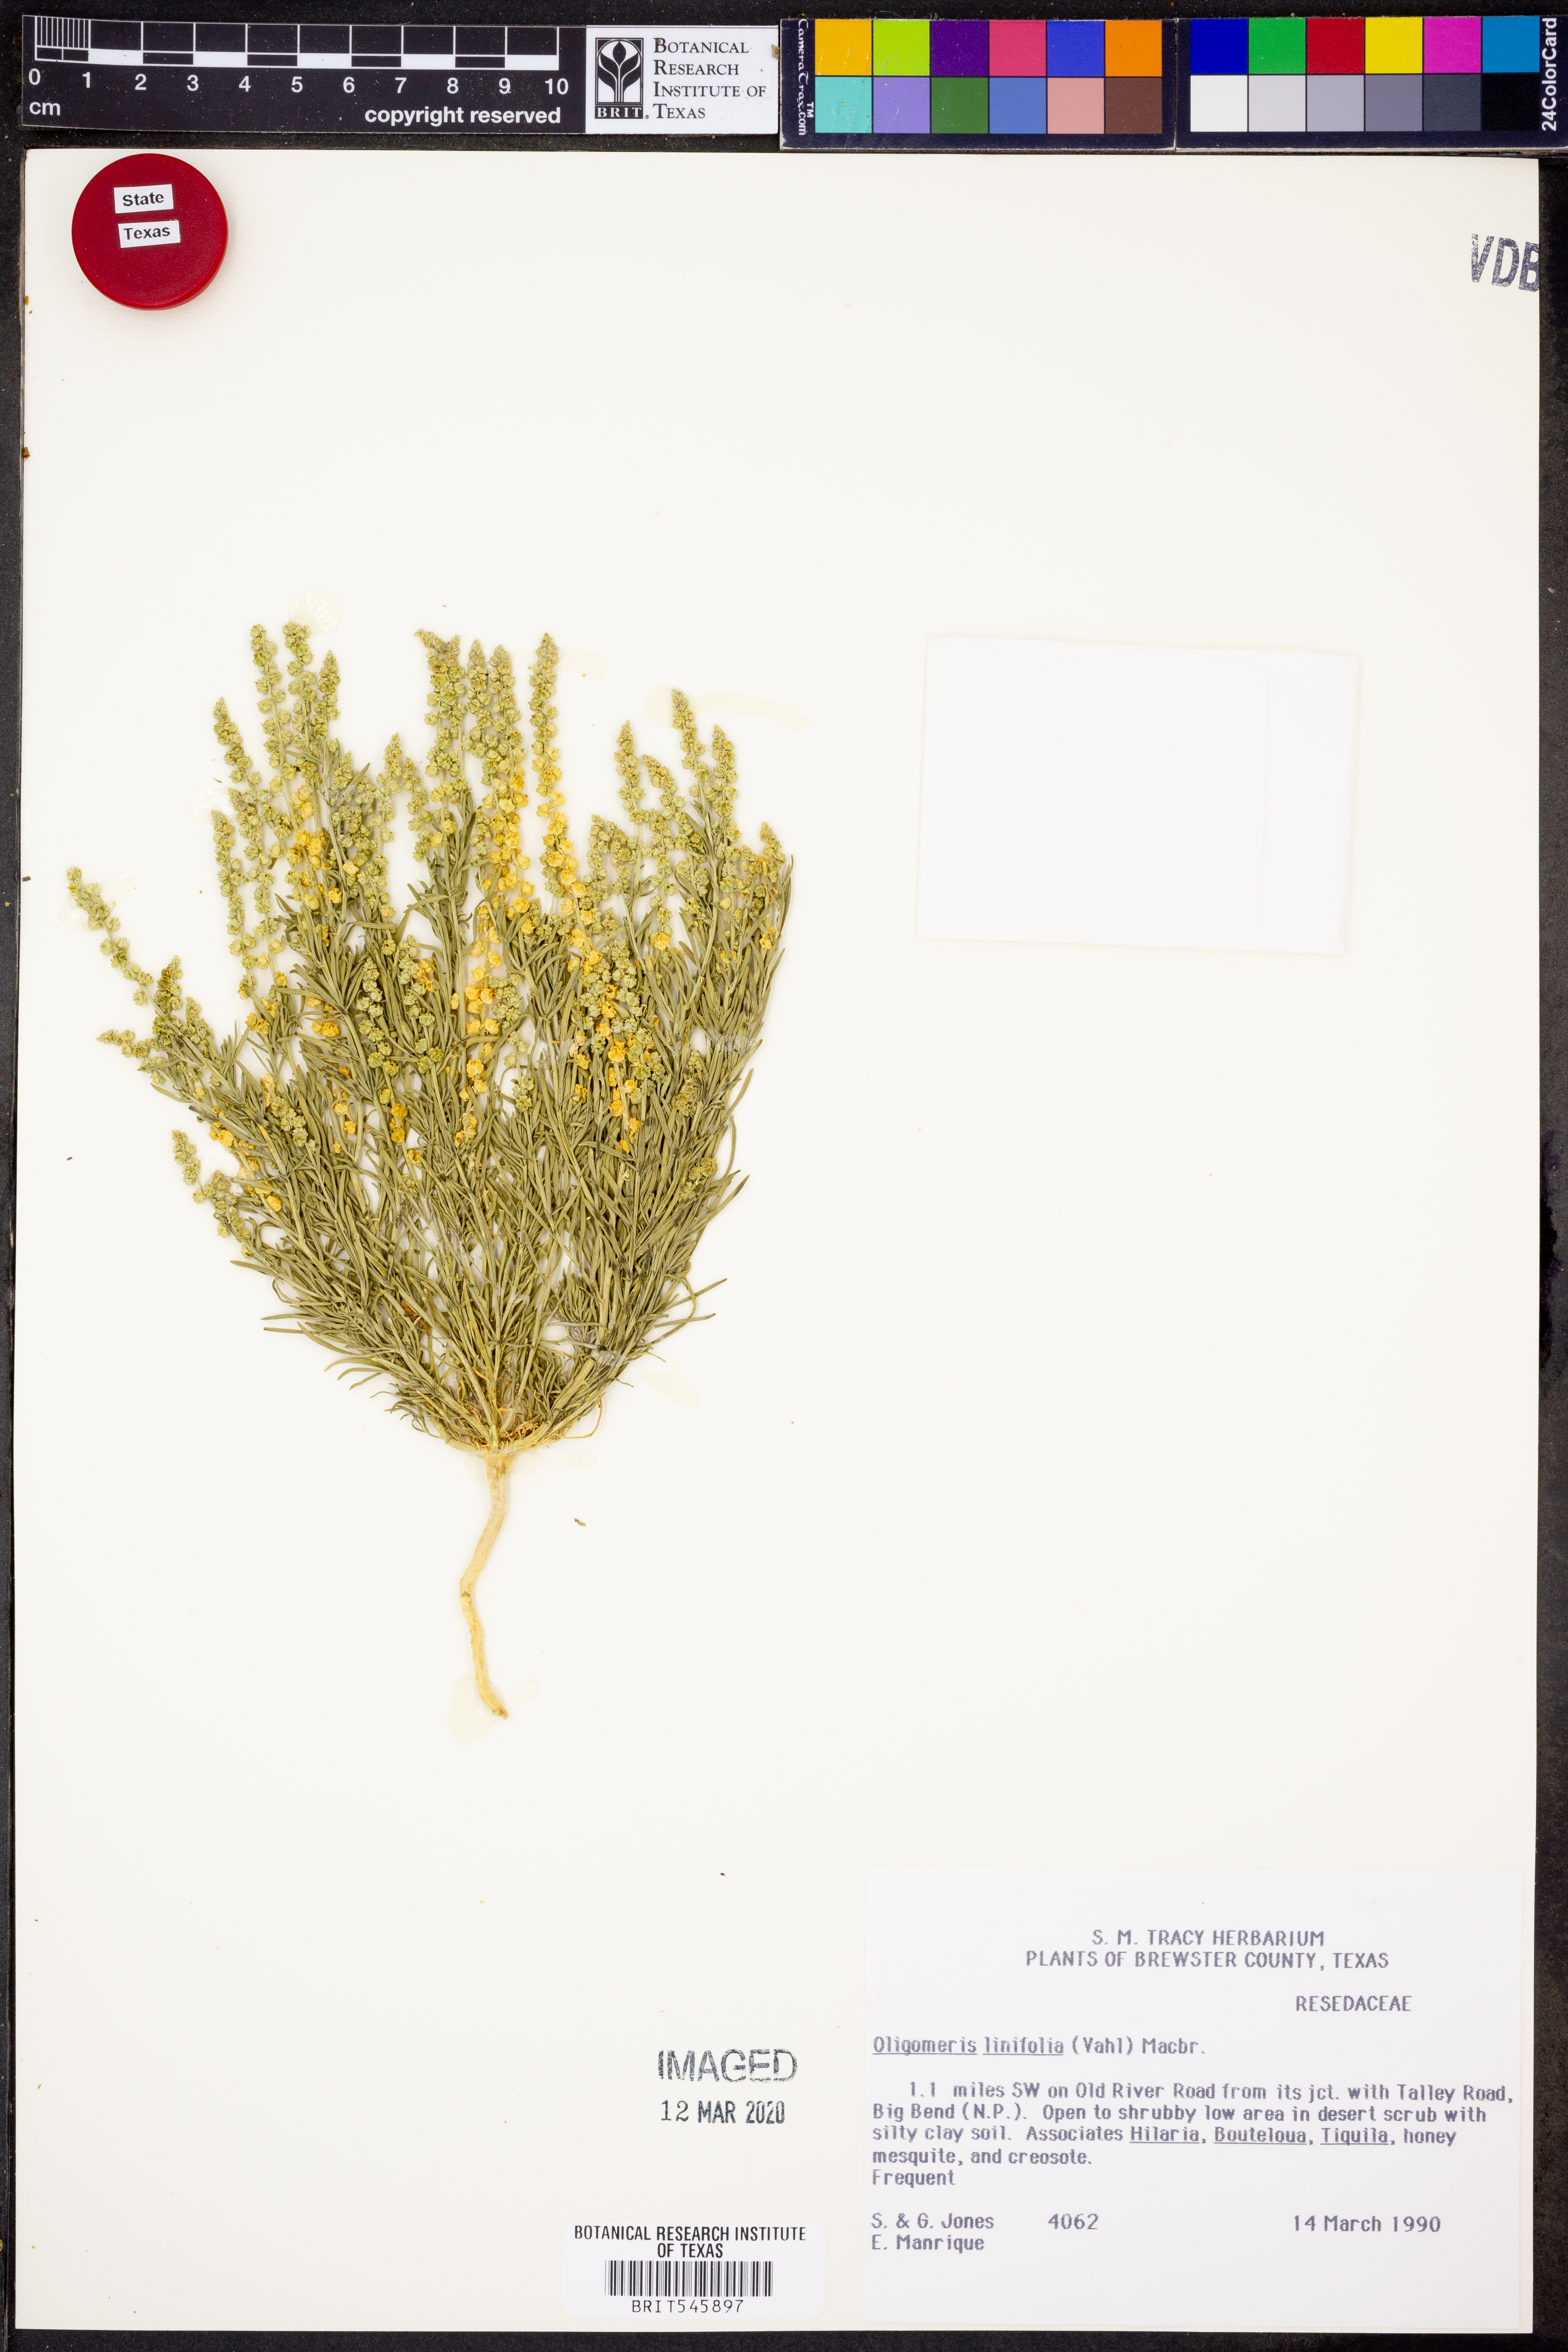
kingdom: Plantae
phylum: Tracheophyta
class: Magnoliopsida
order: Brassicales
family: Resedaceae
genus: Oligomeris
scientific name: Oligomeris linifolia
